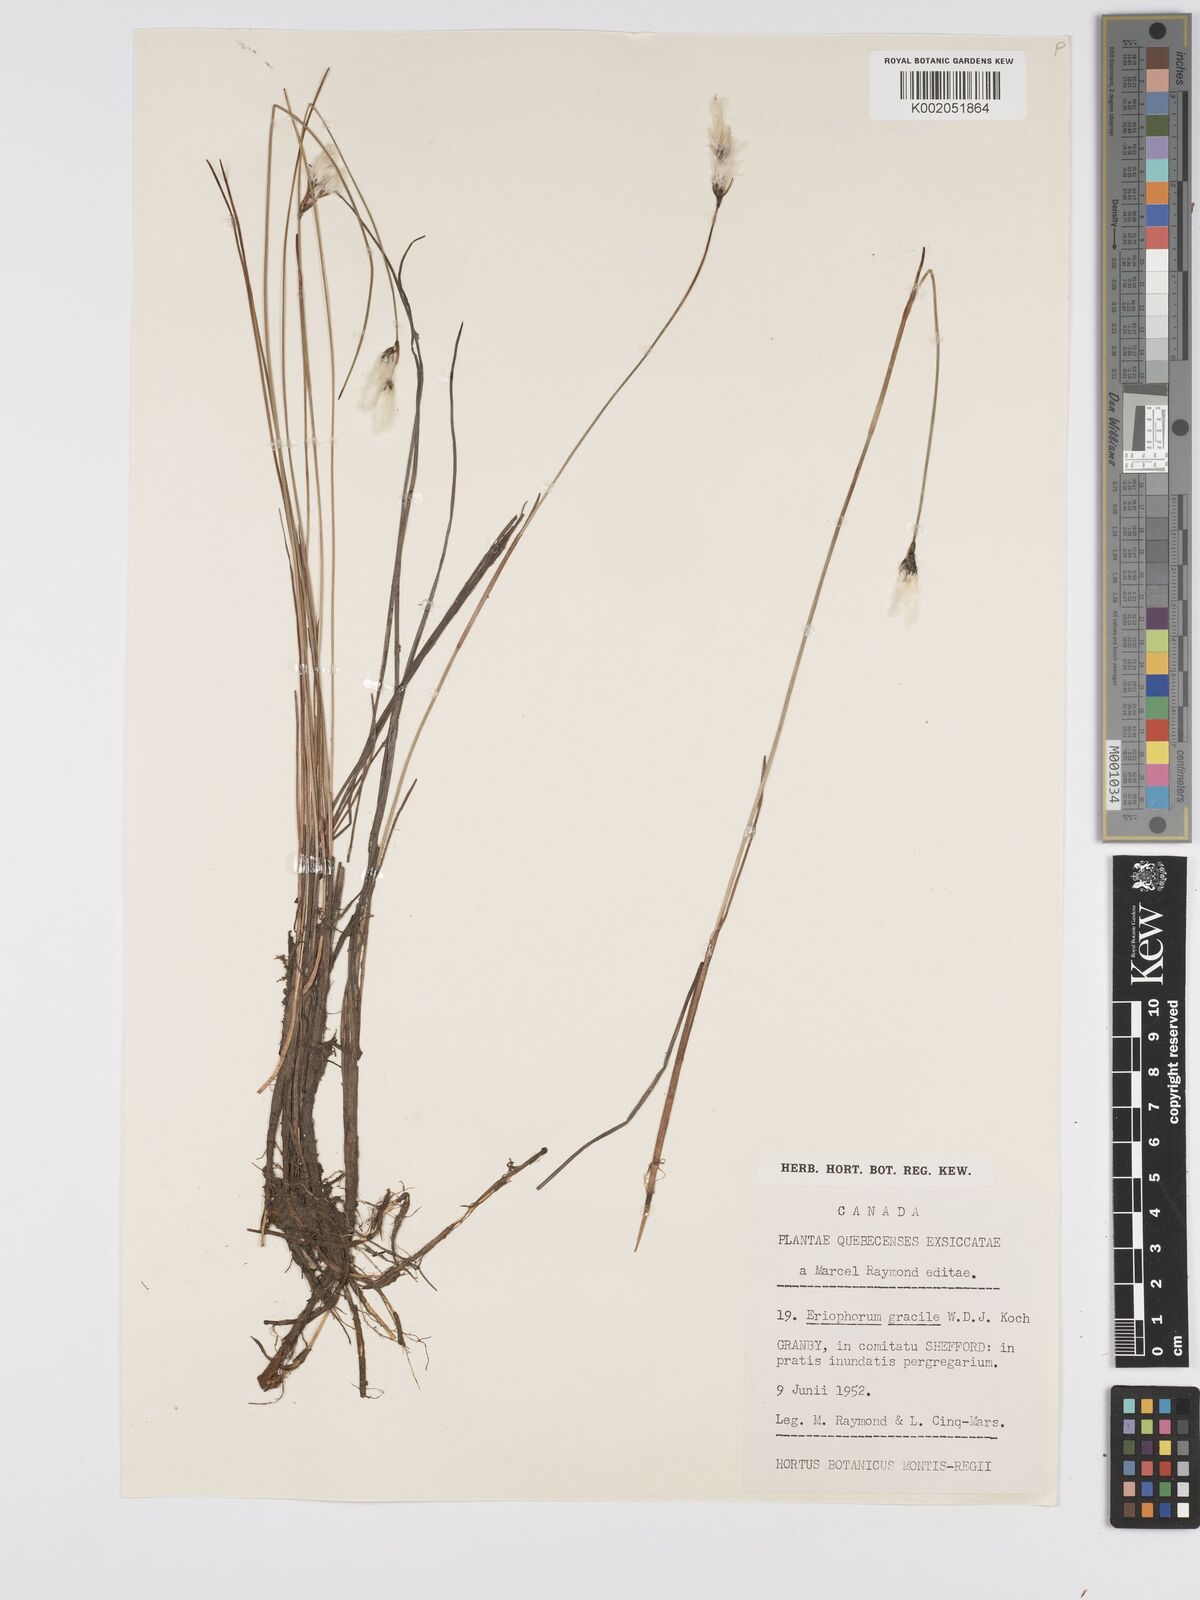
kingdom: Plantae
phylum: Tracheophyta
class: Liliopsida
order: Poales
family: Cyperaceae
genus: Eriophorum
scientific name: Eriophorum gracile
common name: Slender cottongrass
